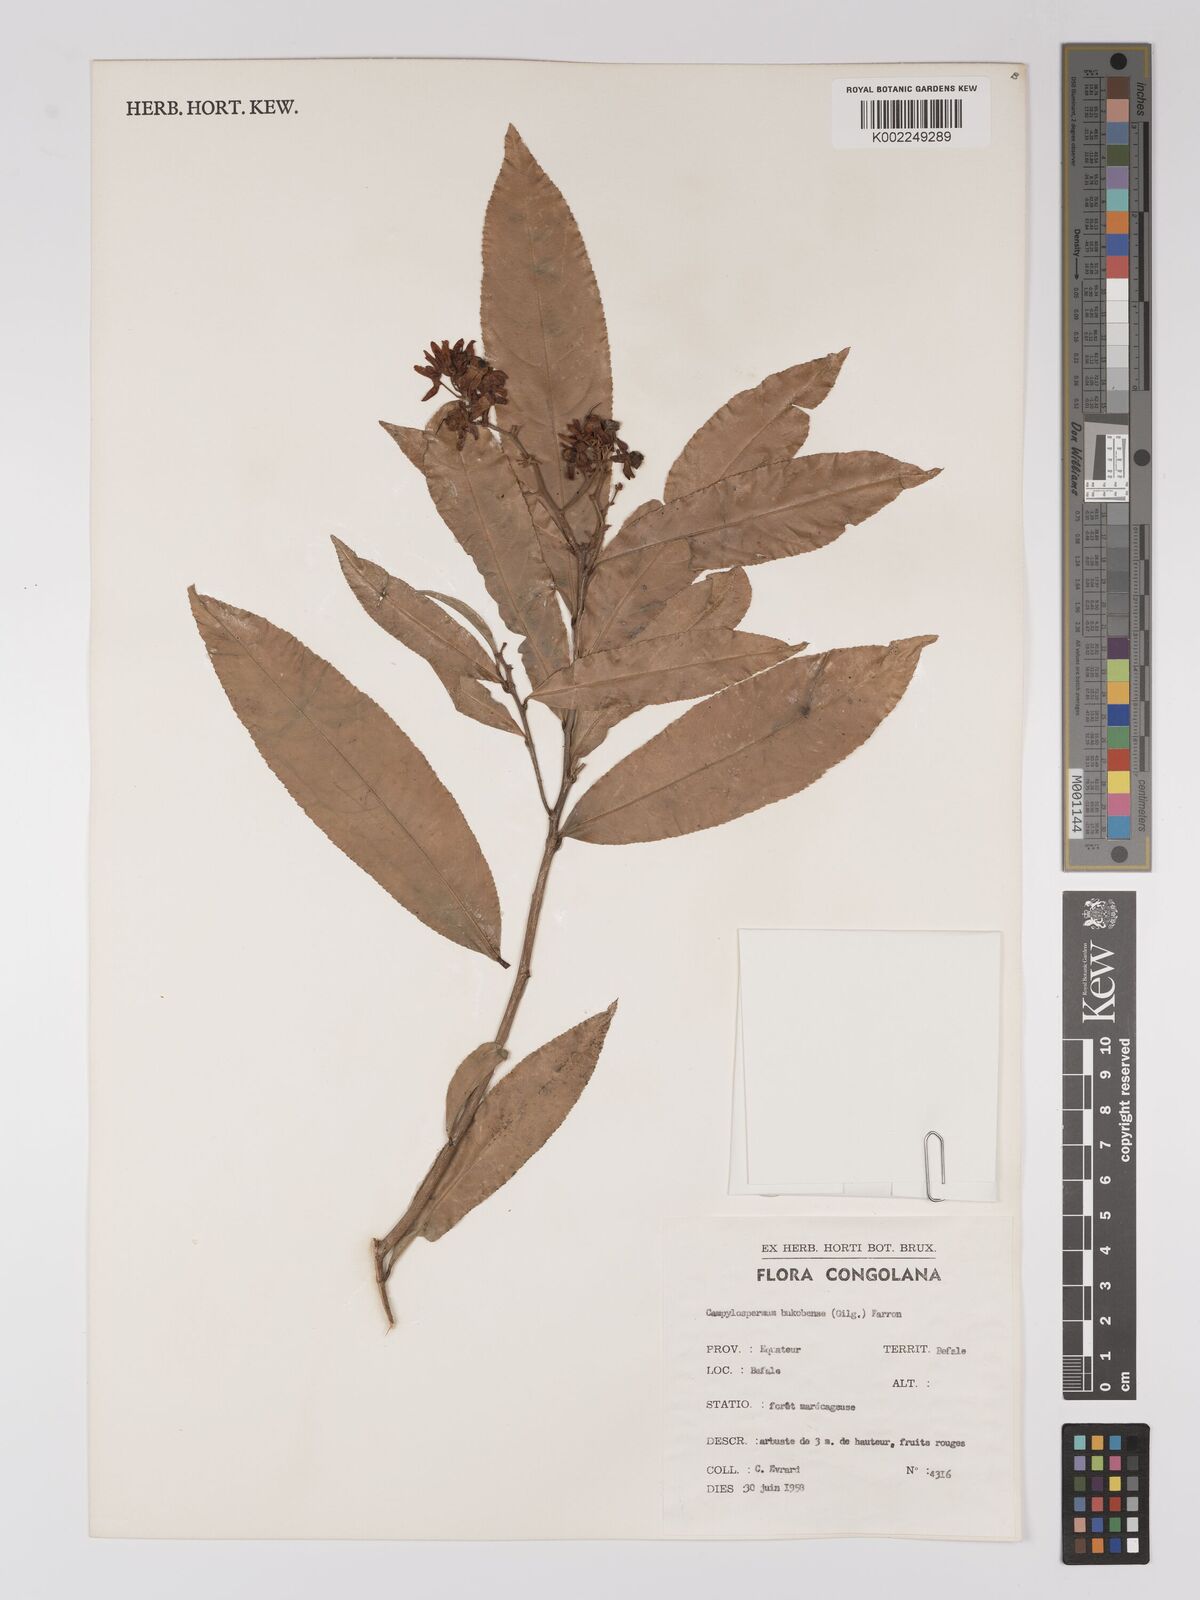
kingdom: Plantae
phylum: Tracheophyta
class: Magnoliopsida
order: Malpighiales
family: Ochnaceae
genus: Campylospermum
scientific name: Campylospermum likimiense
